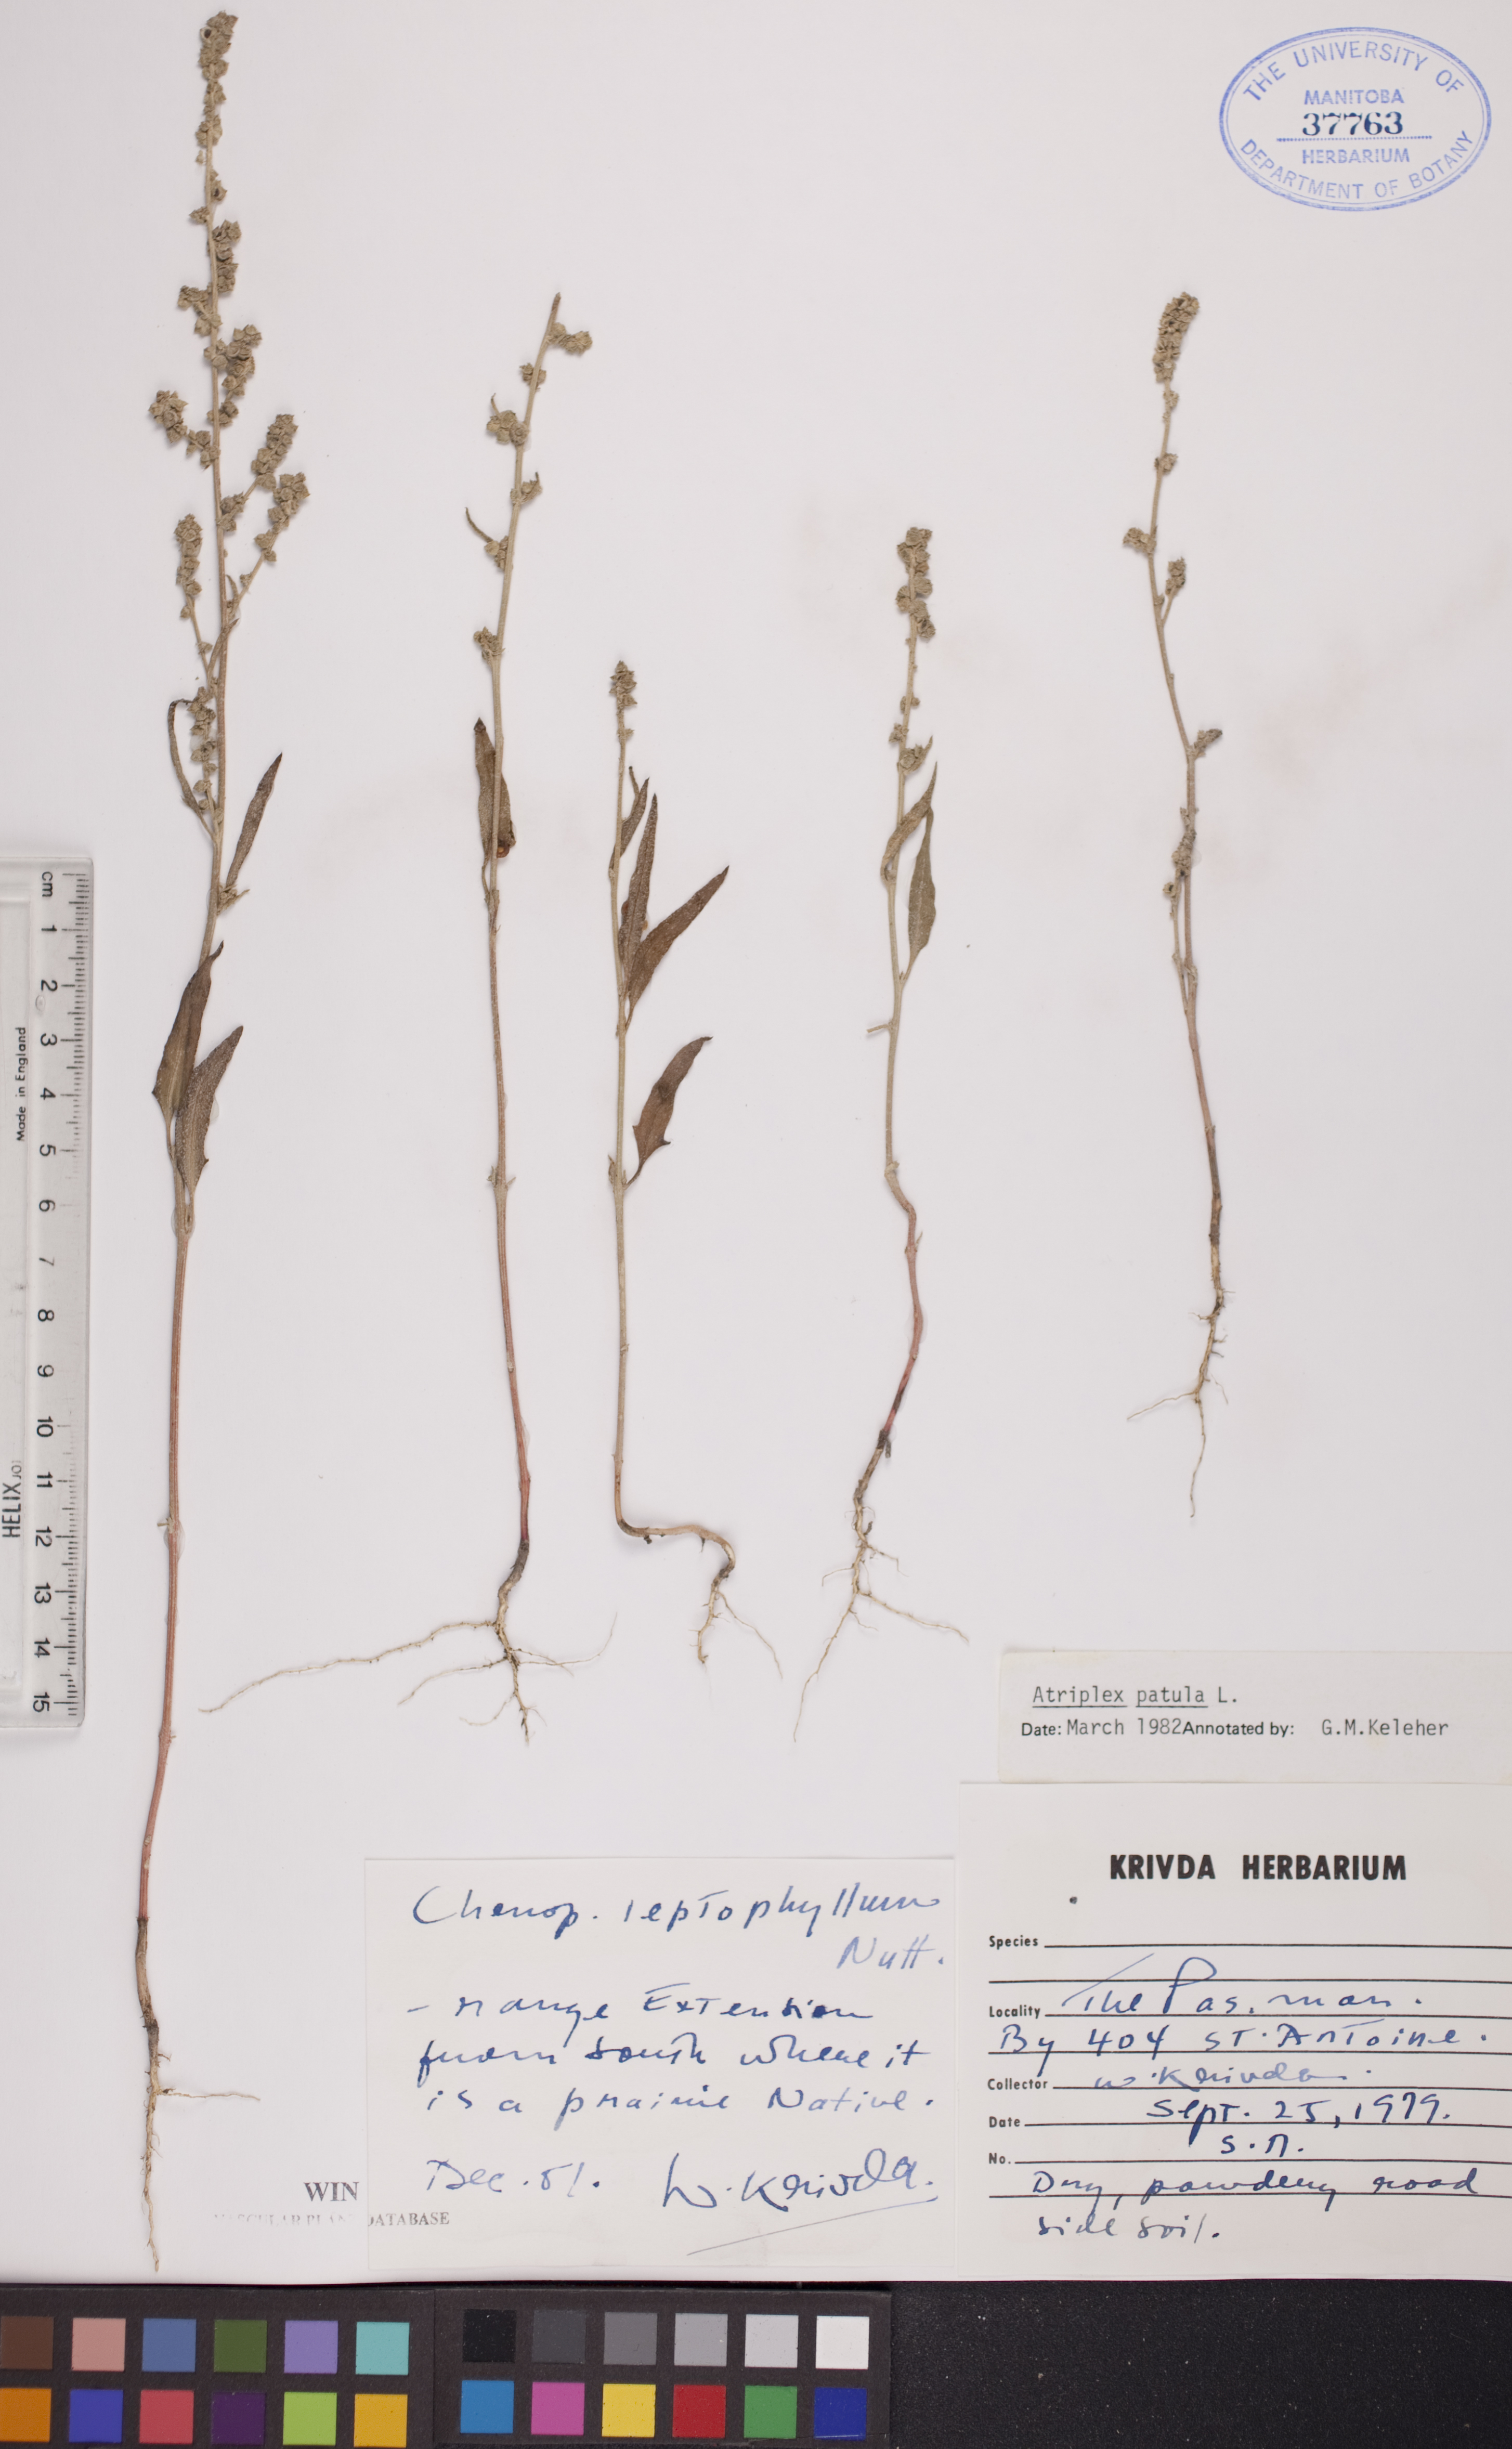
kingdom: Plantae
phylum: Tracheophyta
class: Magnoliopsida
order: Caryophyllales
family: Amaranthaceae
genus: Atriplex
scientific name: Atriplex patula
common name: Common orache
